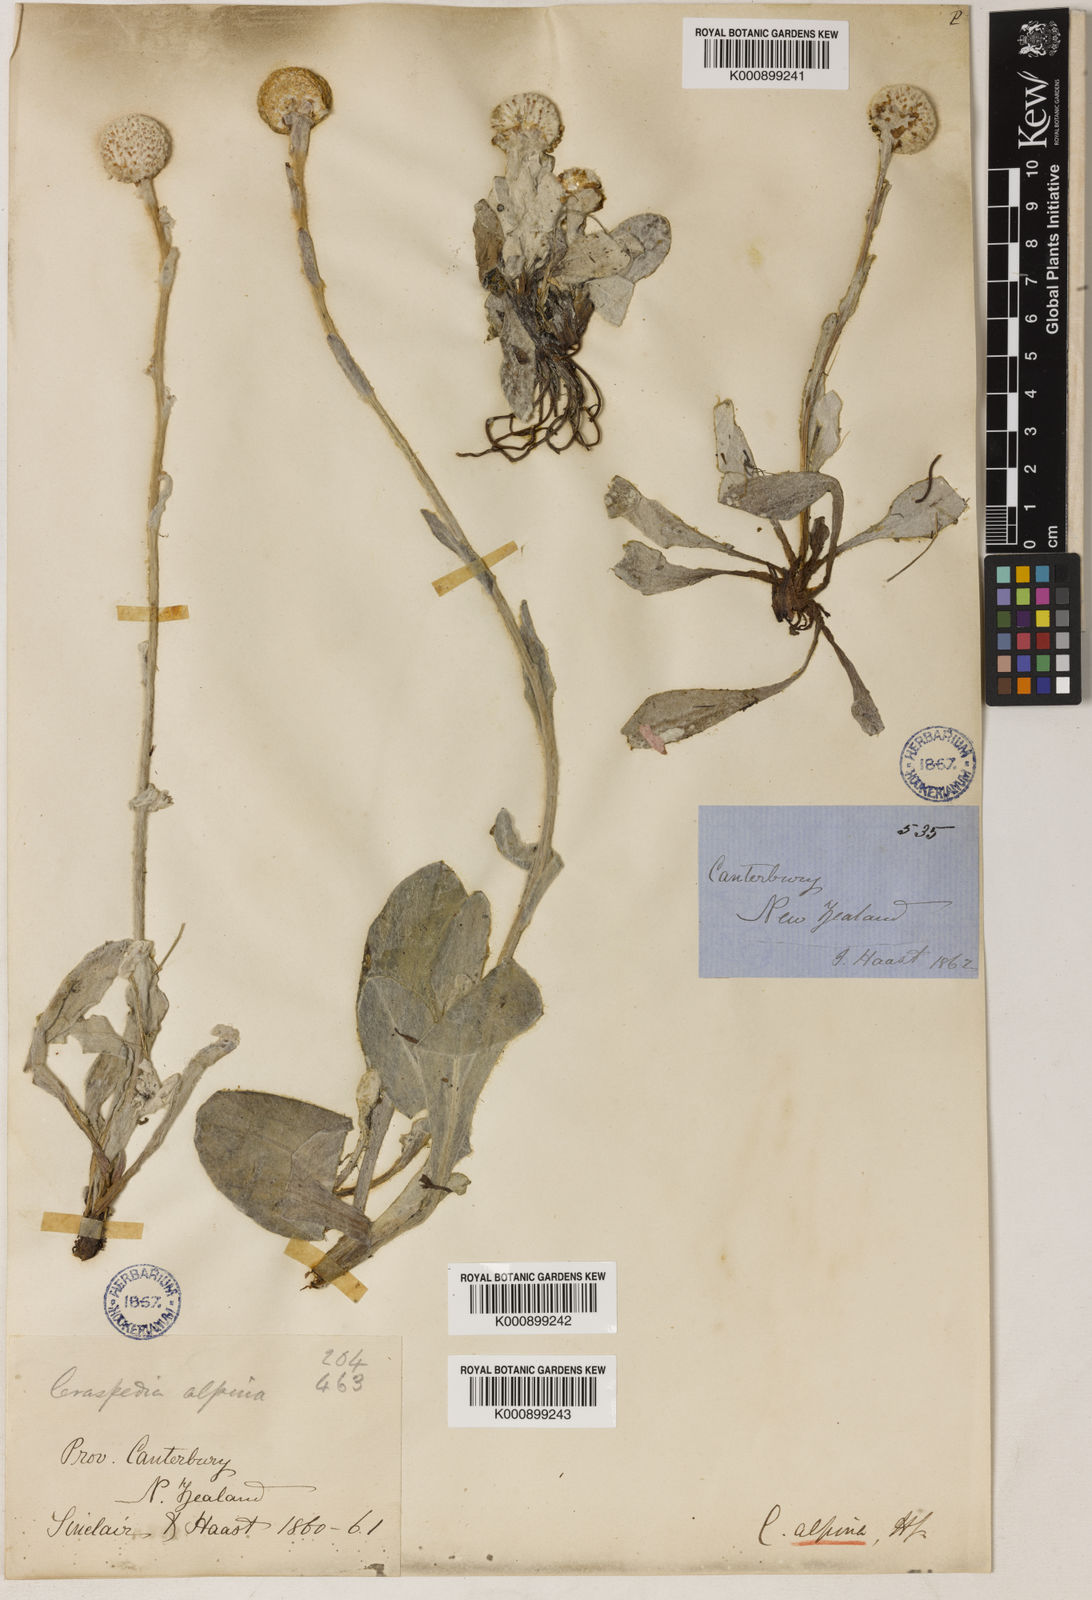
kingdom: Plantae
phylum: Tracheophyta
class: Magnoliopsida
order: Asterales
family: Asteraceae
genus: Craspedia
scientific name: Craspedia uniflora
